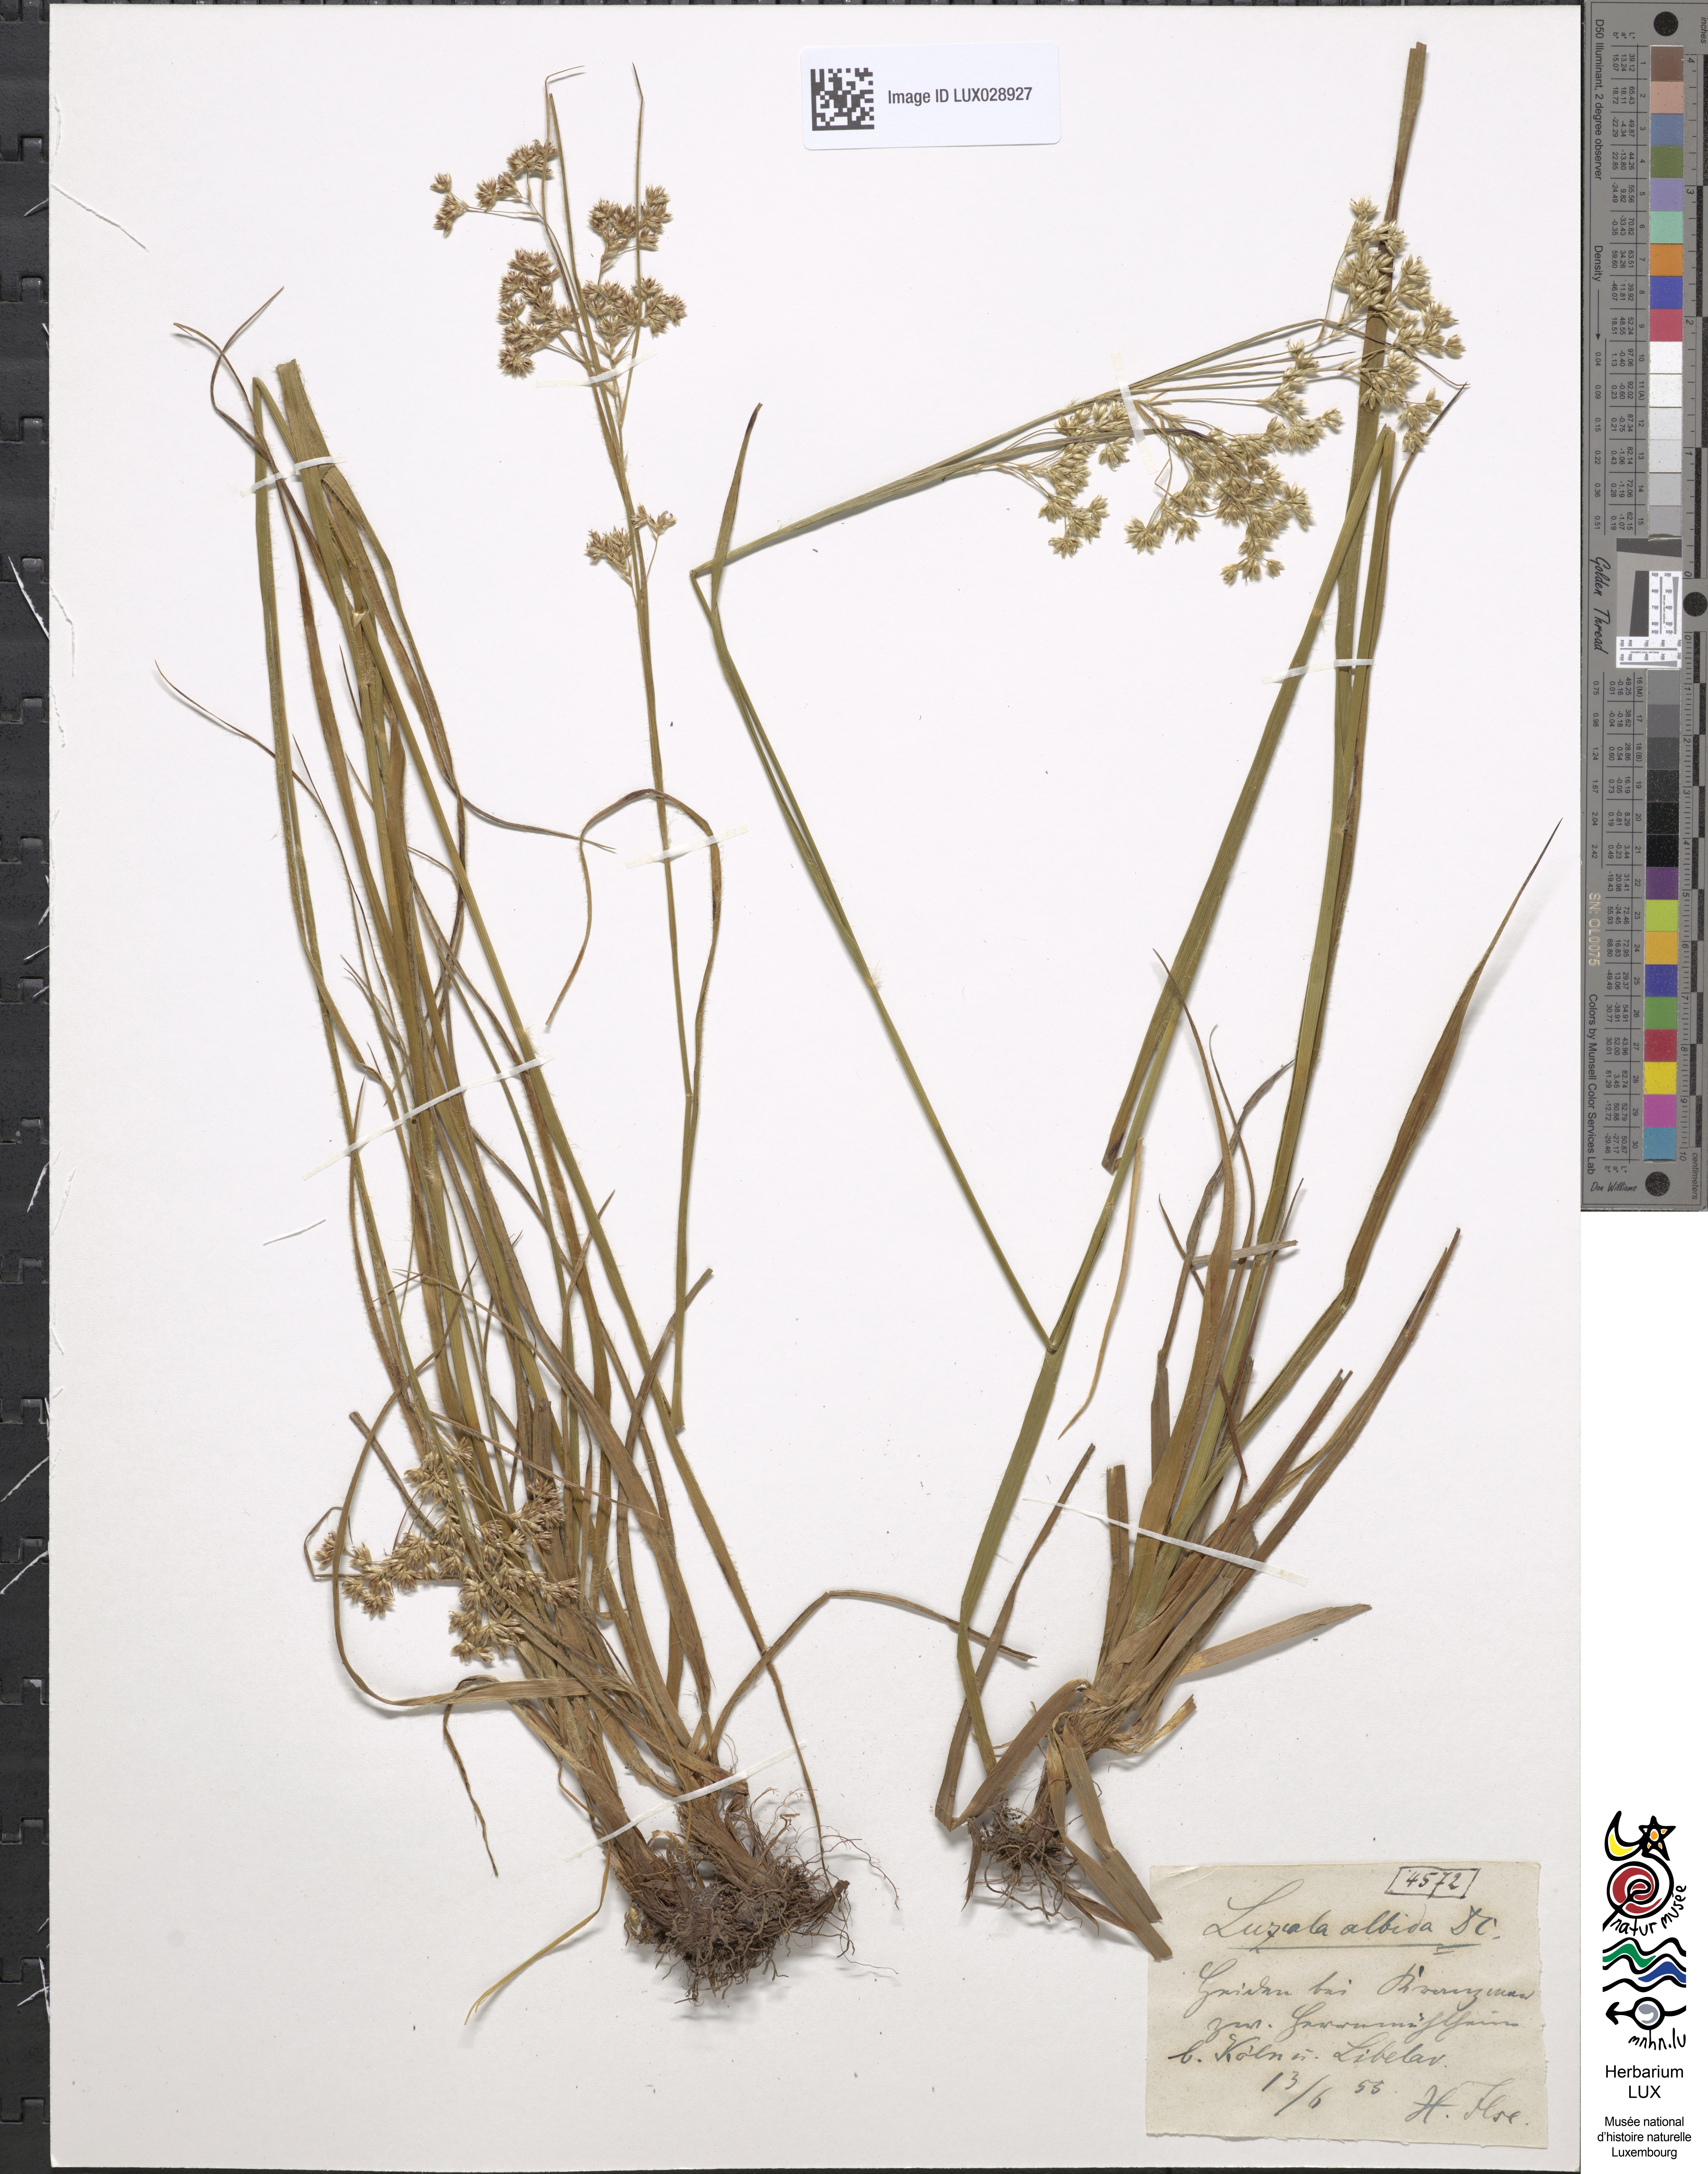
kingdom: Plantae
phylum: Tracheophyta
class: Liliopsida
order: Poales
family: Juncaceae
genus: Luzula
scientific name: Luzula luzuloides
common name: White wood-rush
